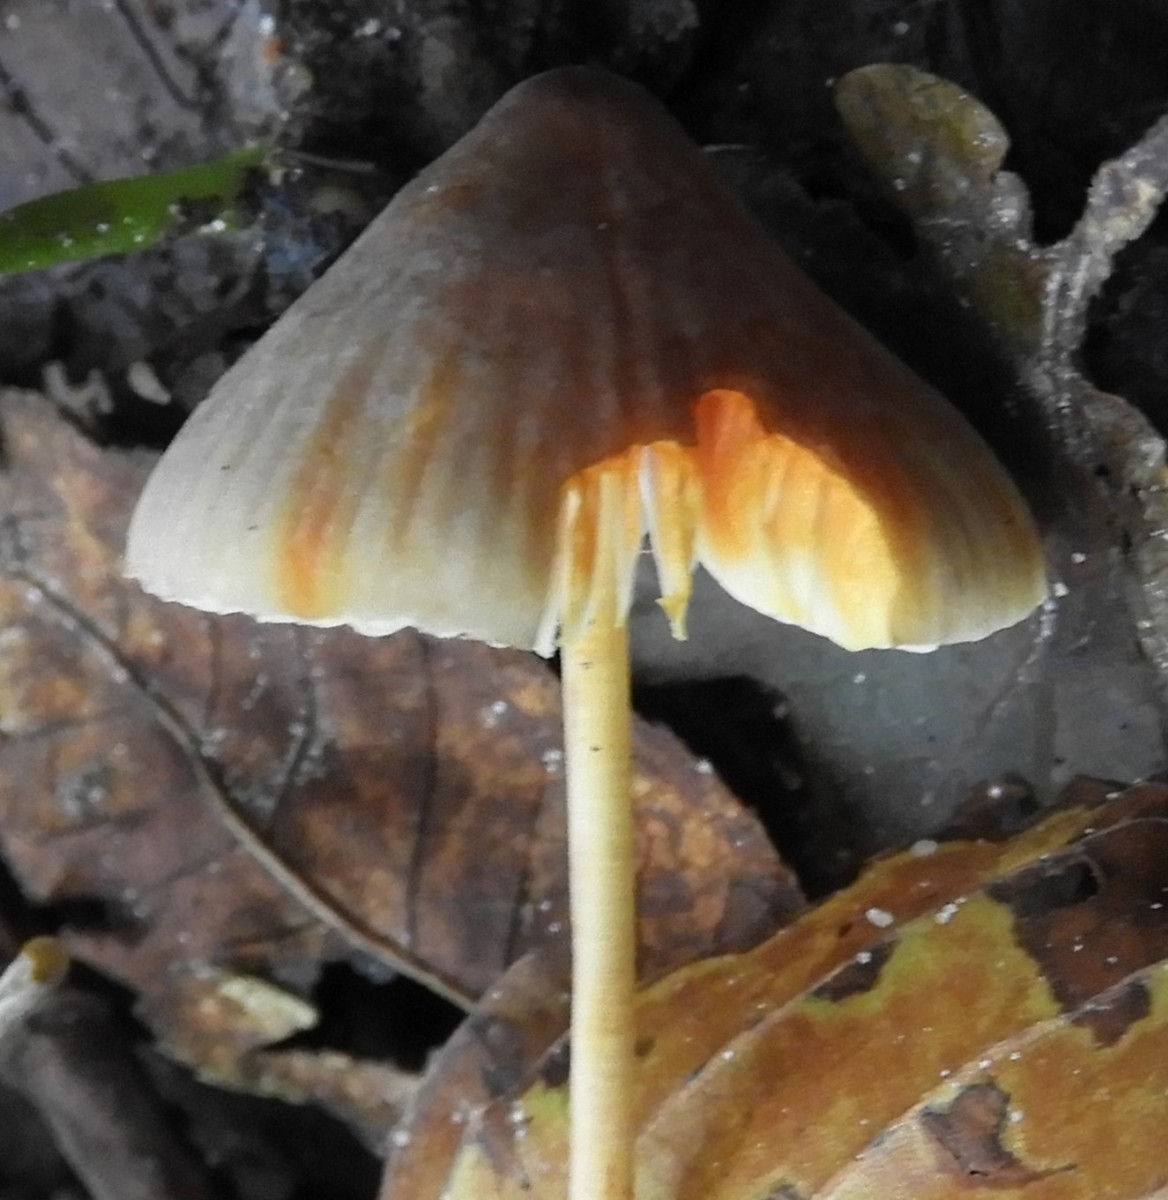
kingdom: Fungi
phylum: Basidiomycota
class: Agaricomycetes
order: Agaricales
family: Mycenaceae
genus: Mycena
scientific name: Mycena crocata
